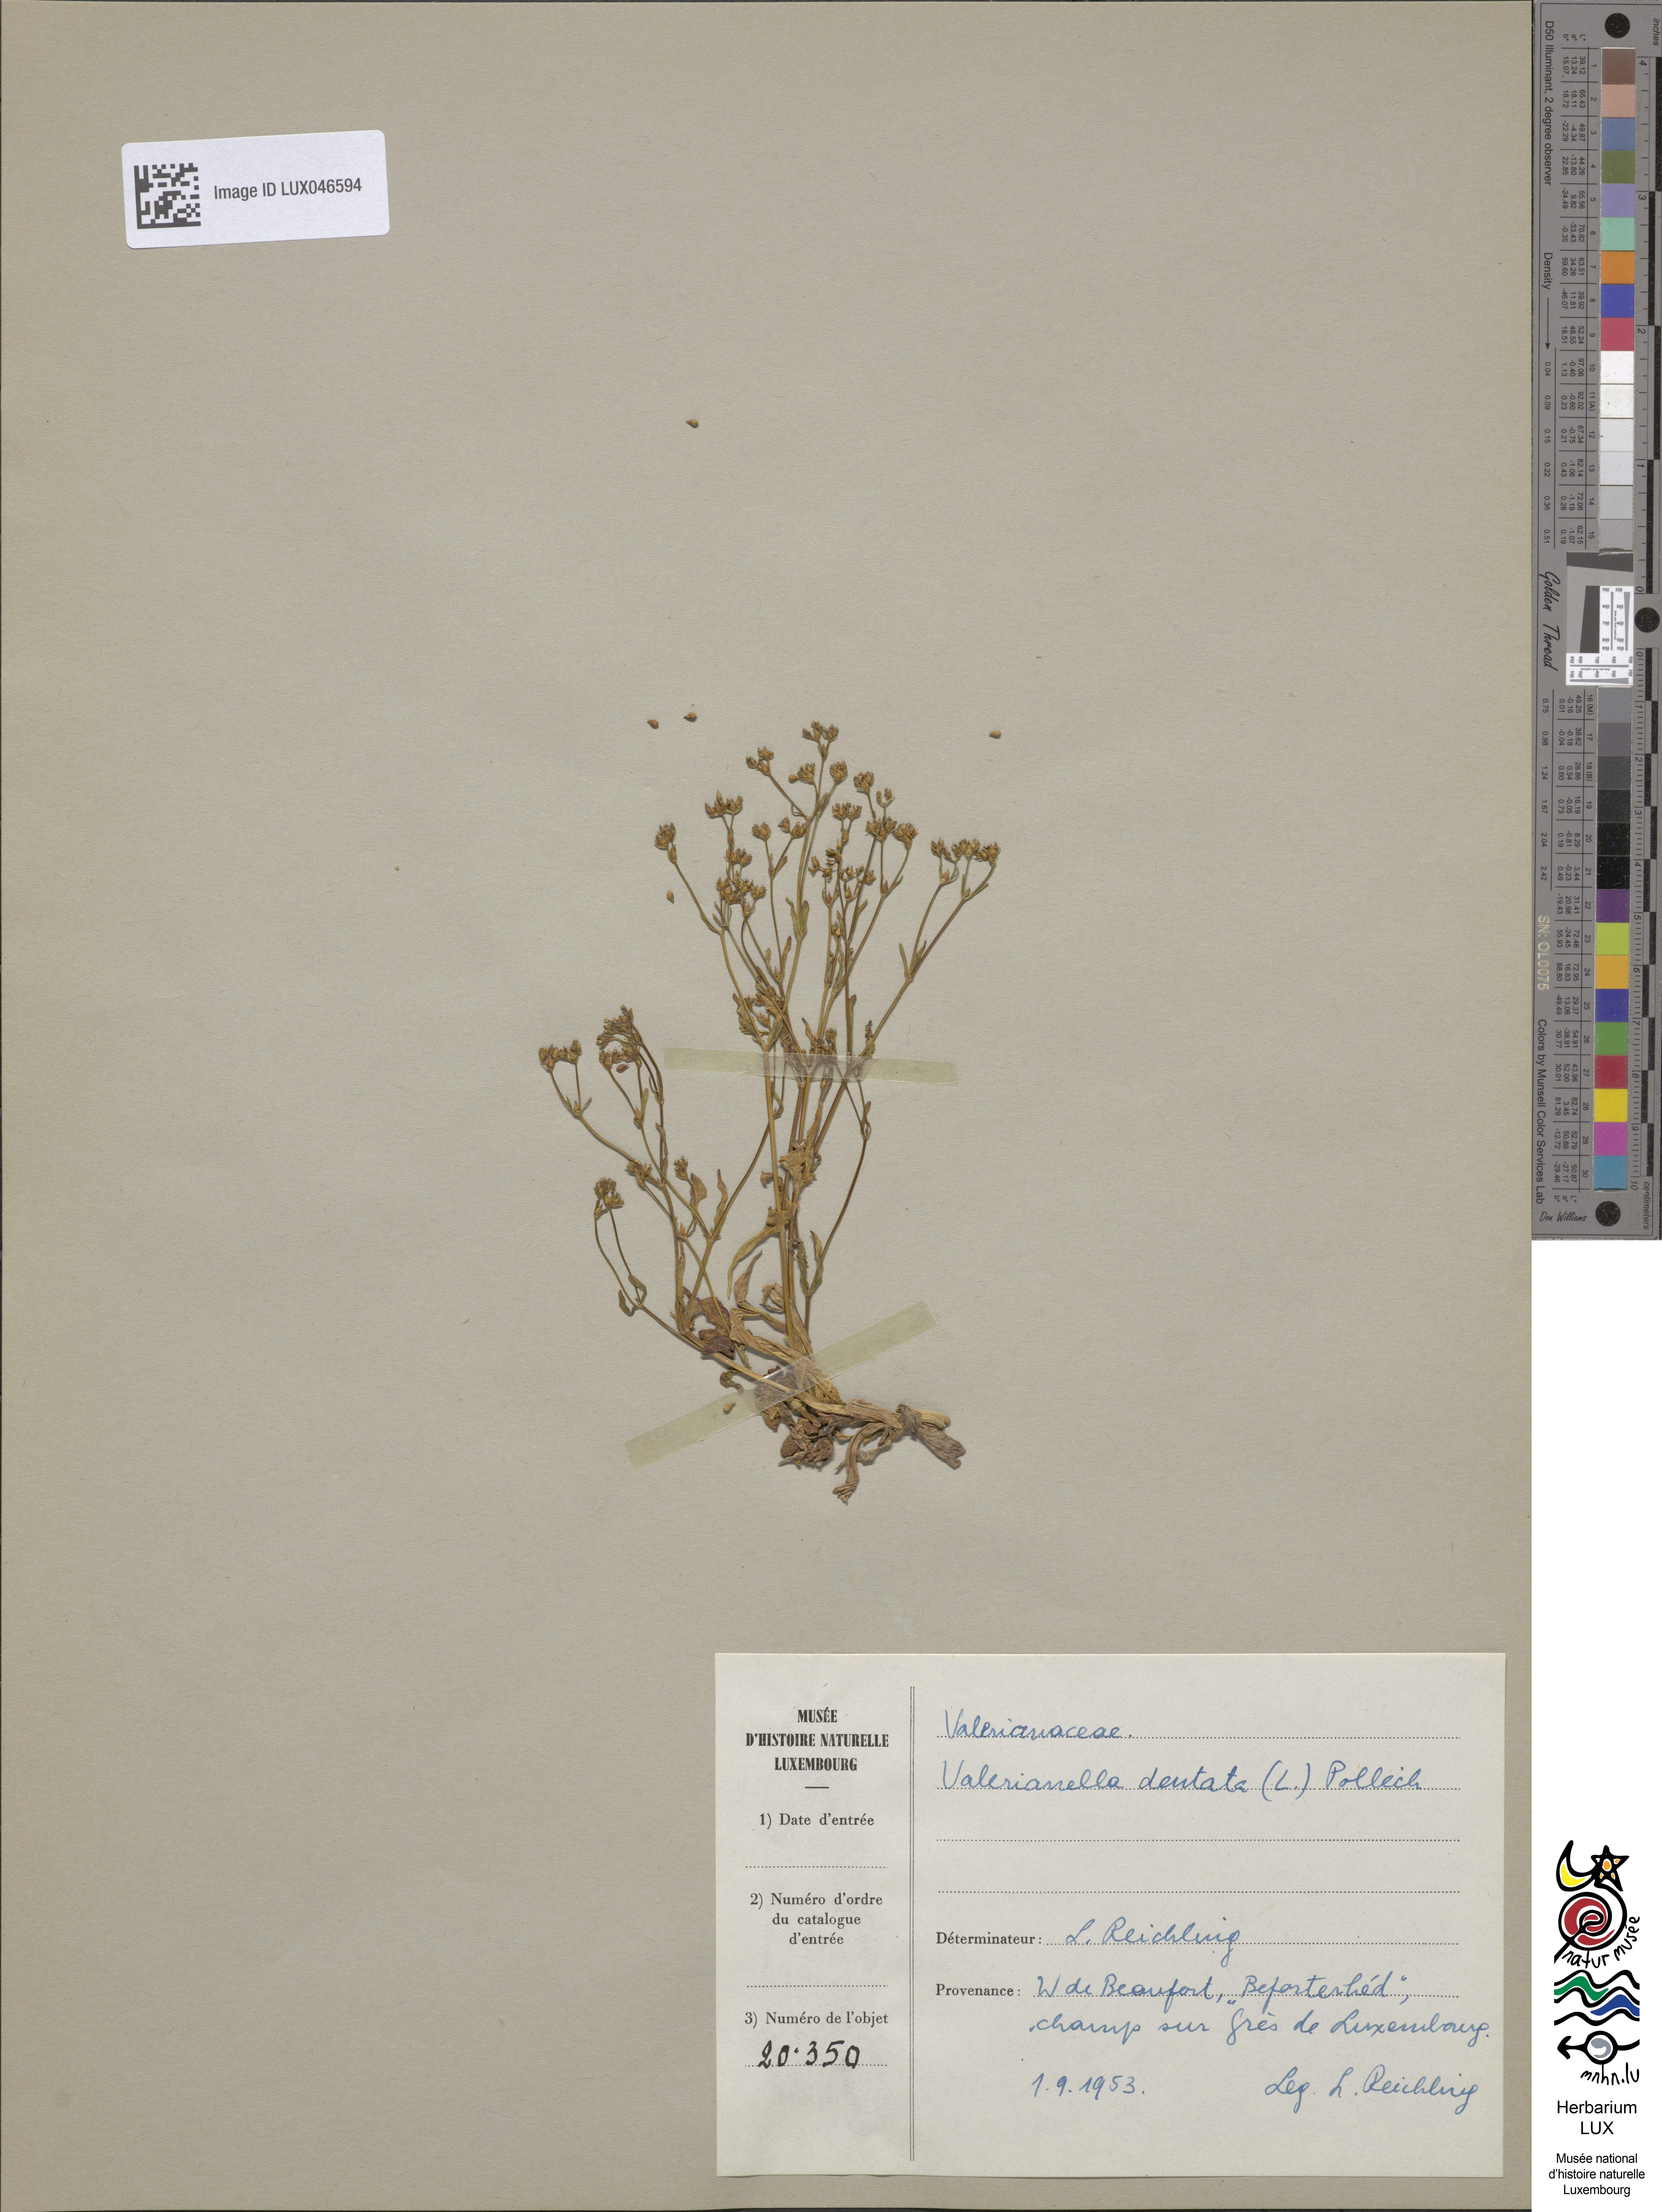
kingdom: Plantae
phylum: Tracheophyta
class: Magnoliopsida
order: Dipsacales
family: Caprifoliaceae
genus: Valerianella
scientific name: Valerianella dentata
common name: Narrow-fruited cornsalad
